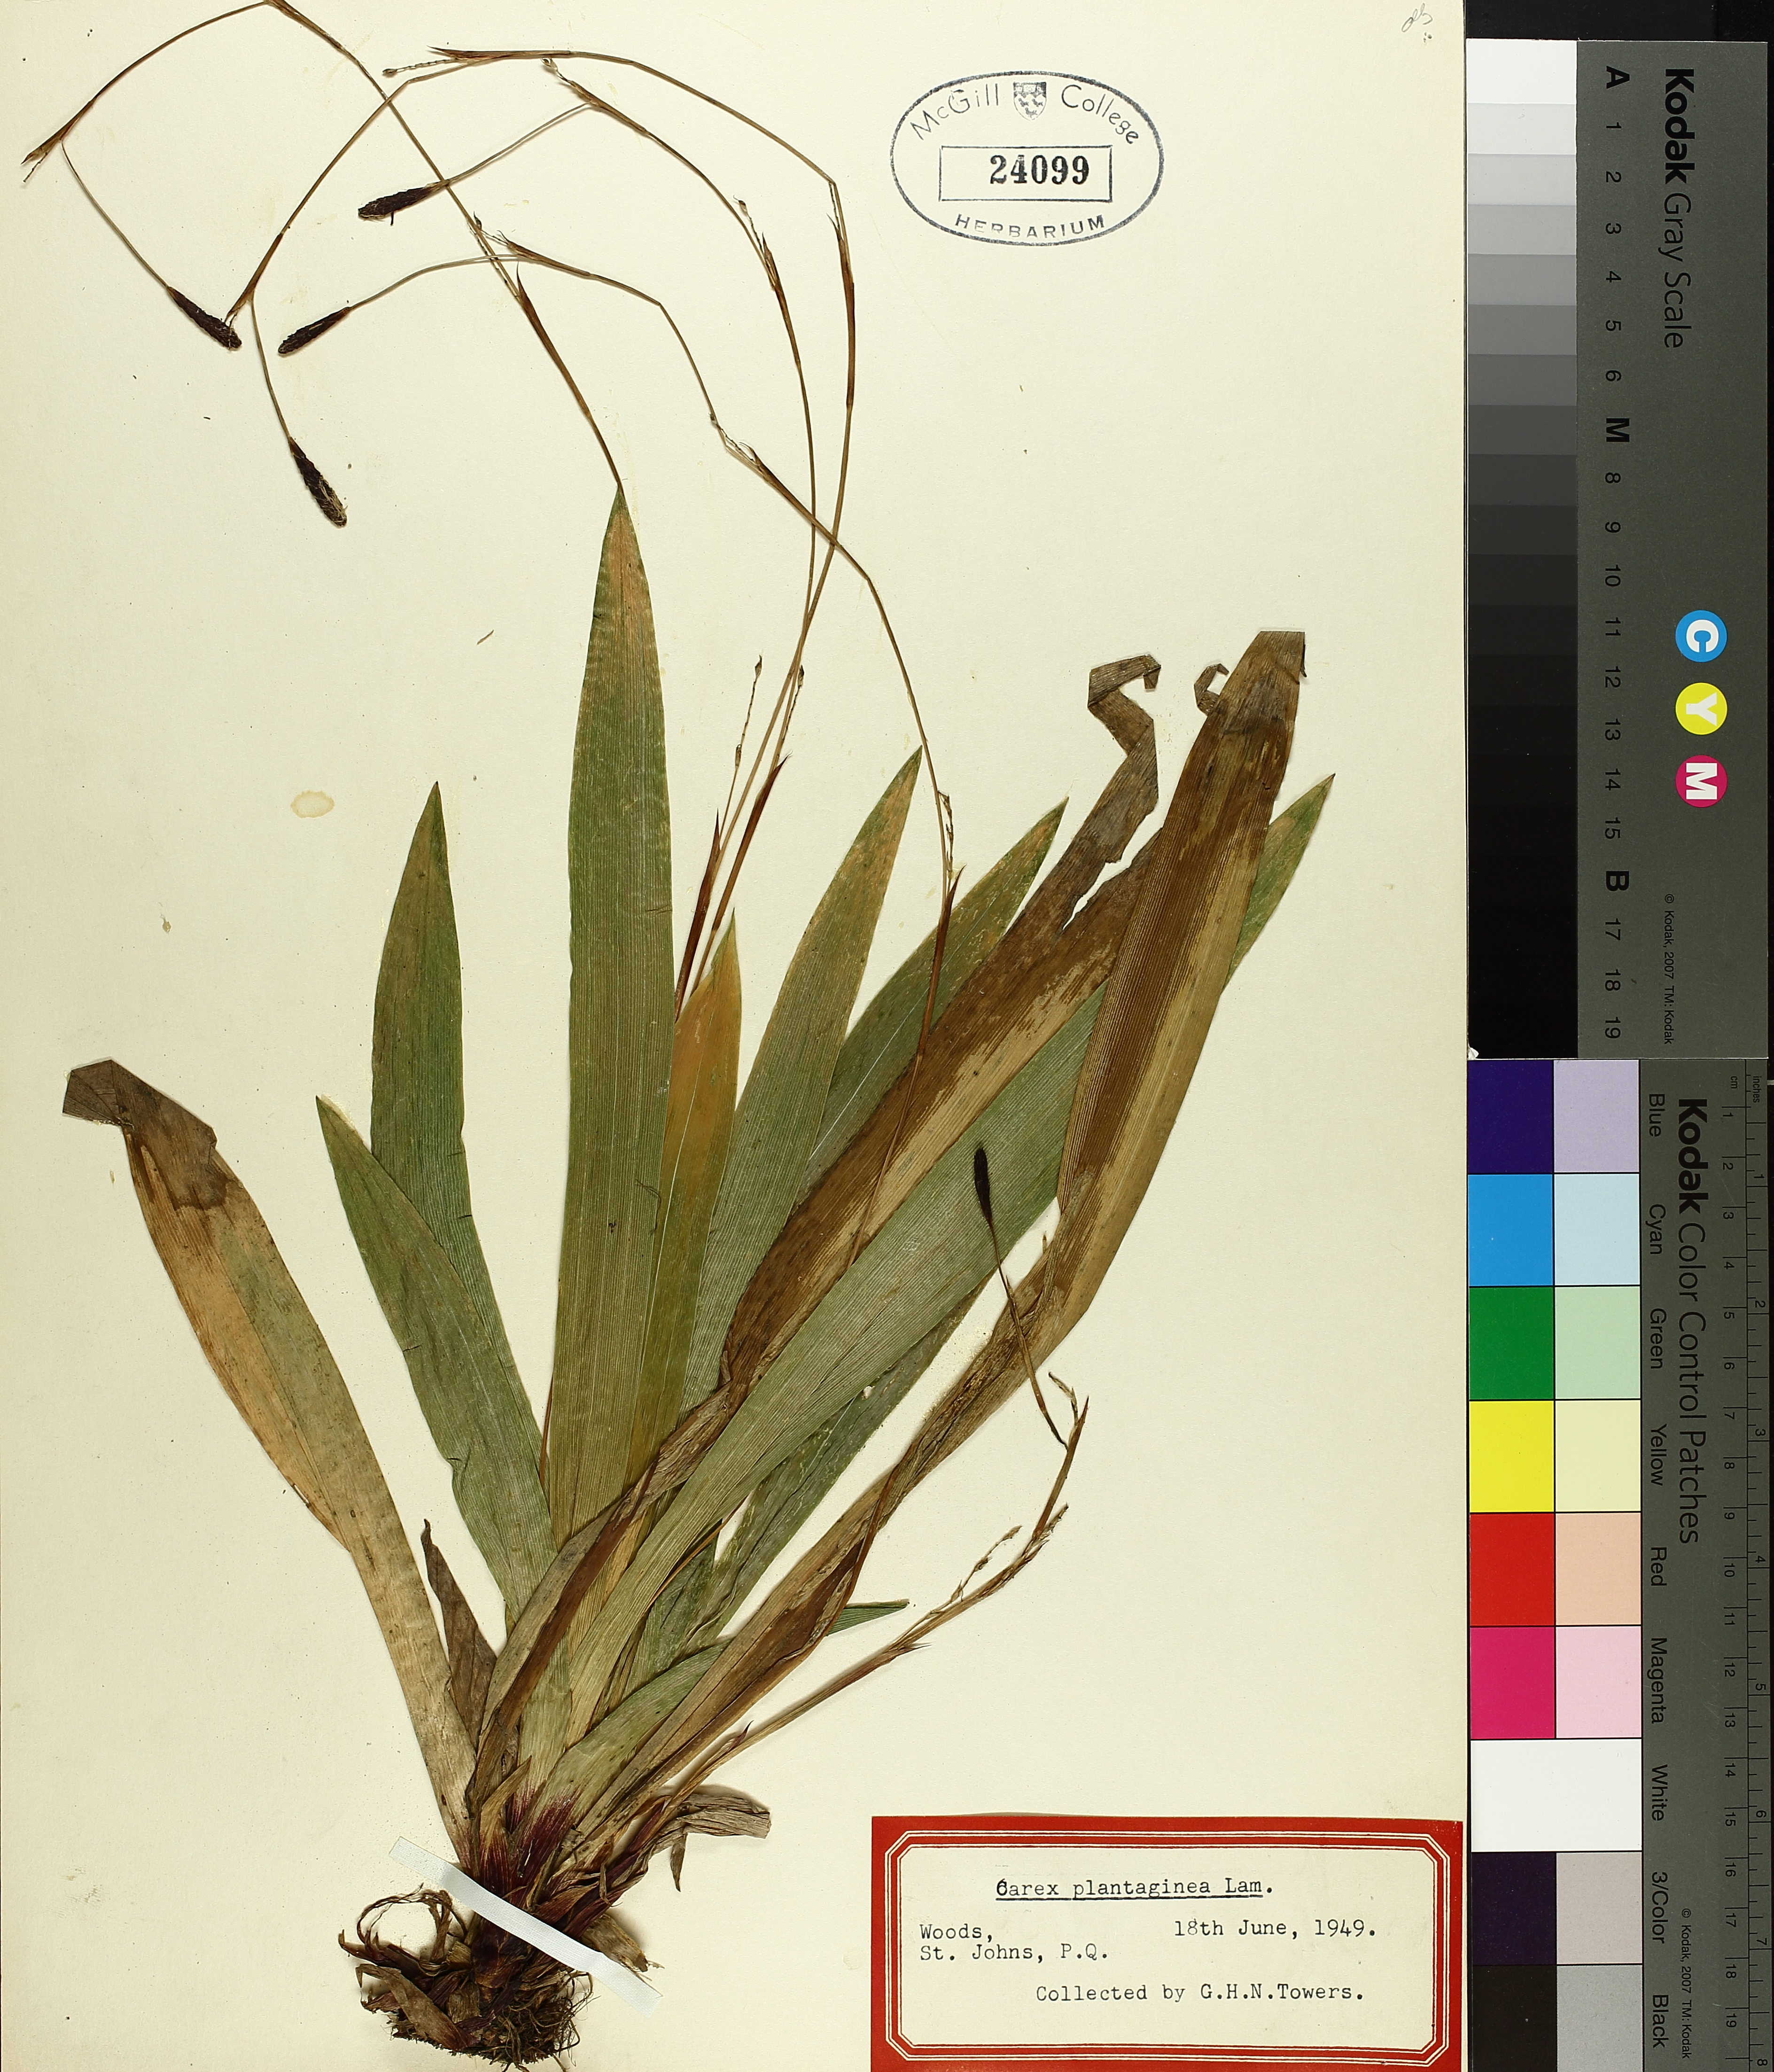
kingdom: Plantae
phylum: Tracheophyta
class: Liliopsida
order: Poales
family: Cyperaceae
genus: Carex
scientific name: Carex plantaginea
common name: Plantain-leaved sedge
